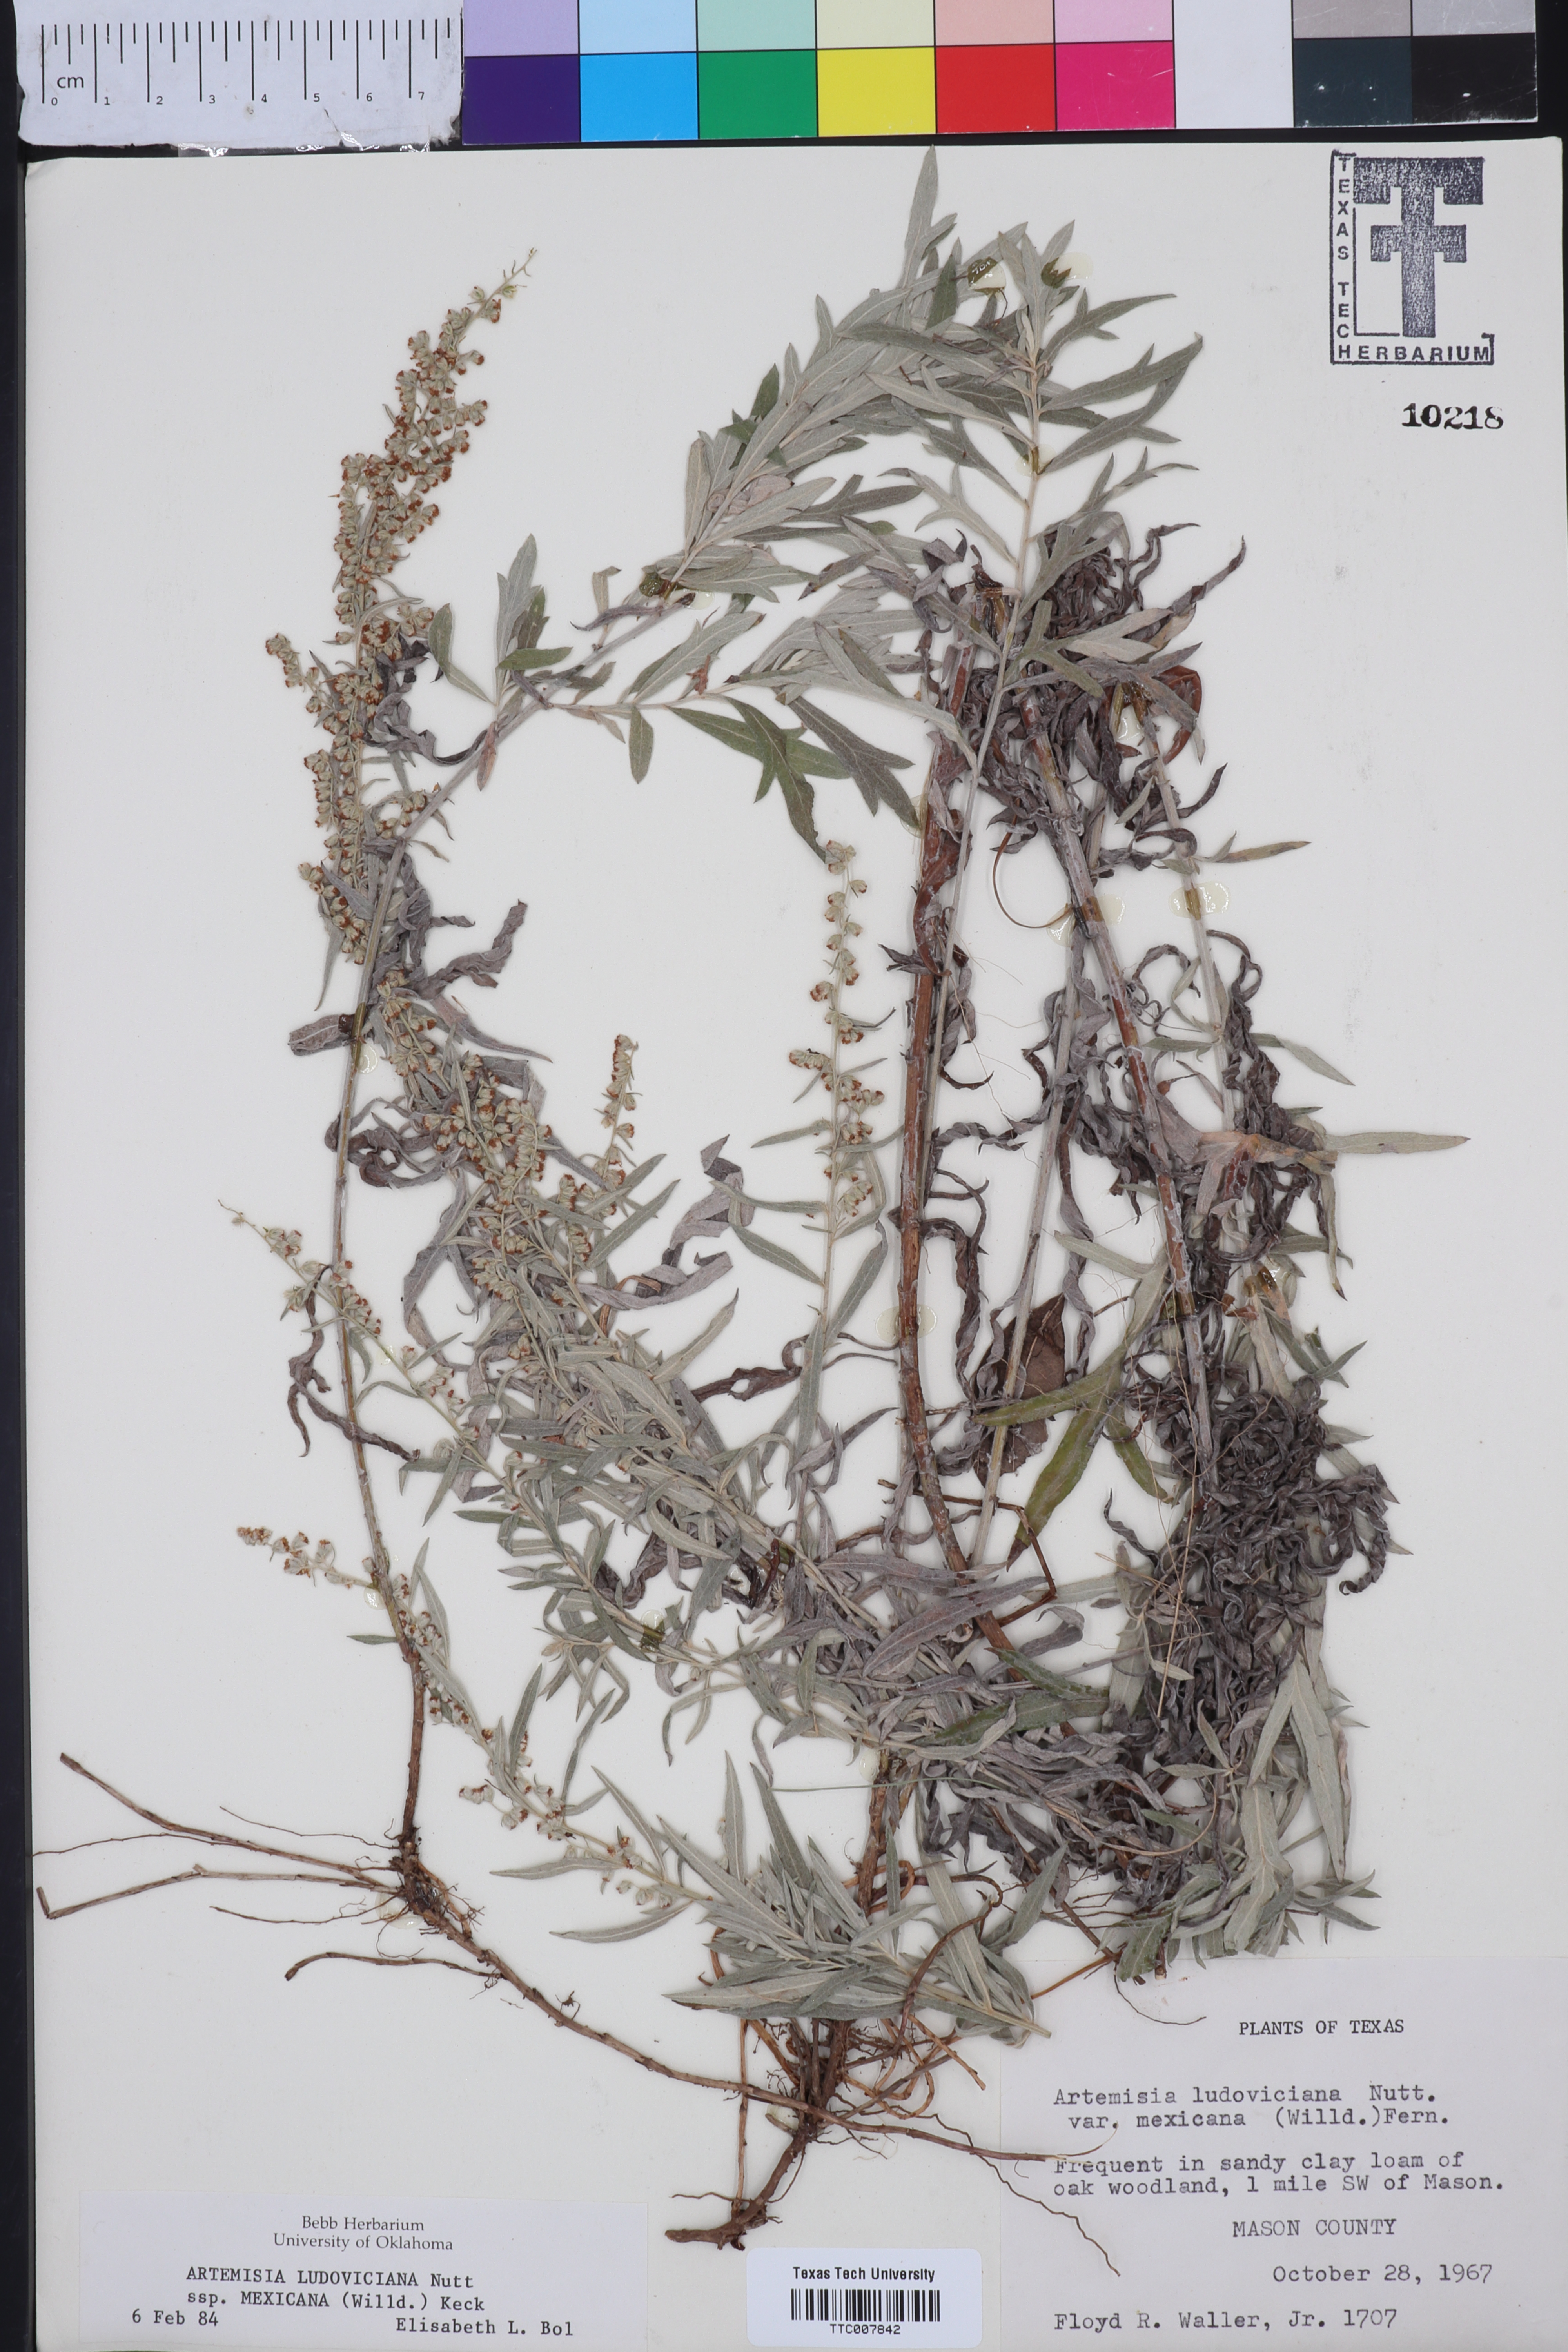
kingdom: Plantae
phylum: Tracheophyta
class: Magnoliopsida
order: Asterales
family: Asteraceae
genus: Artemisia
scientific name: Artemisia ludoviciana
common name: Western mugwort
